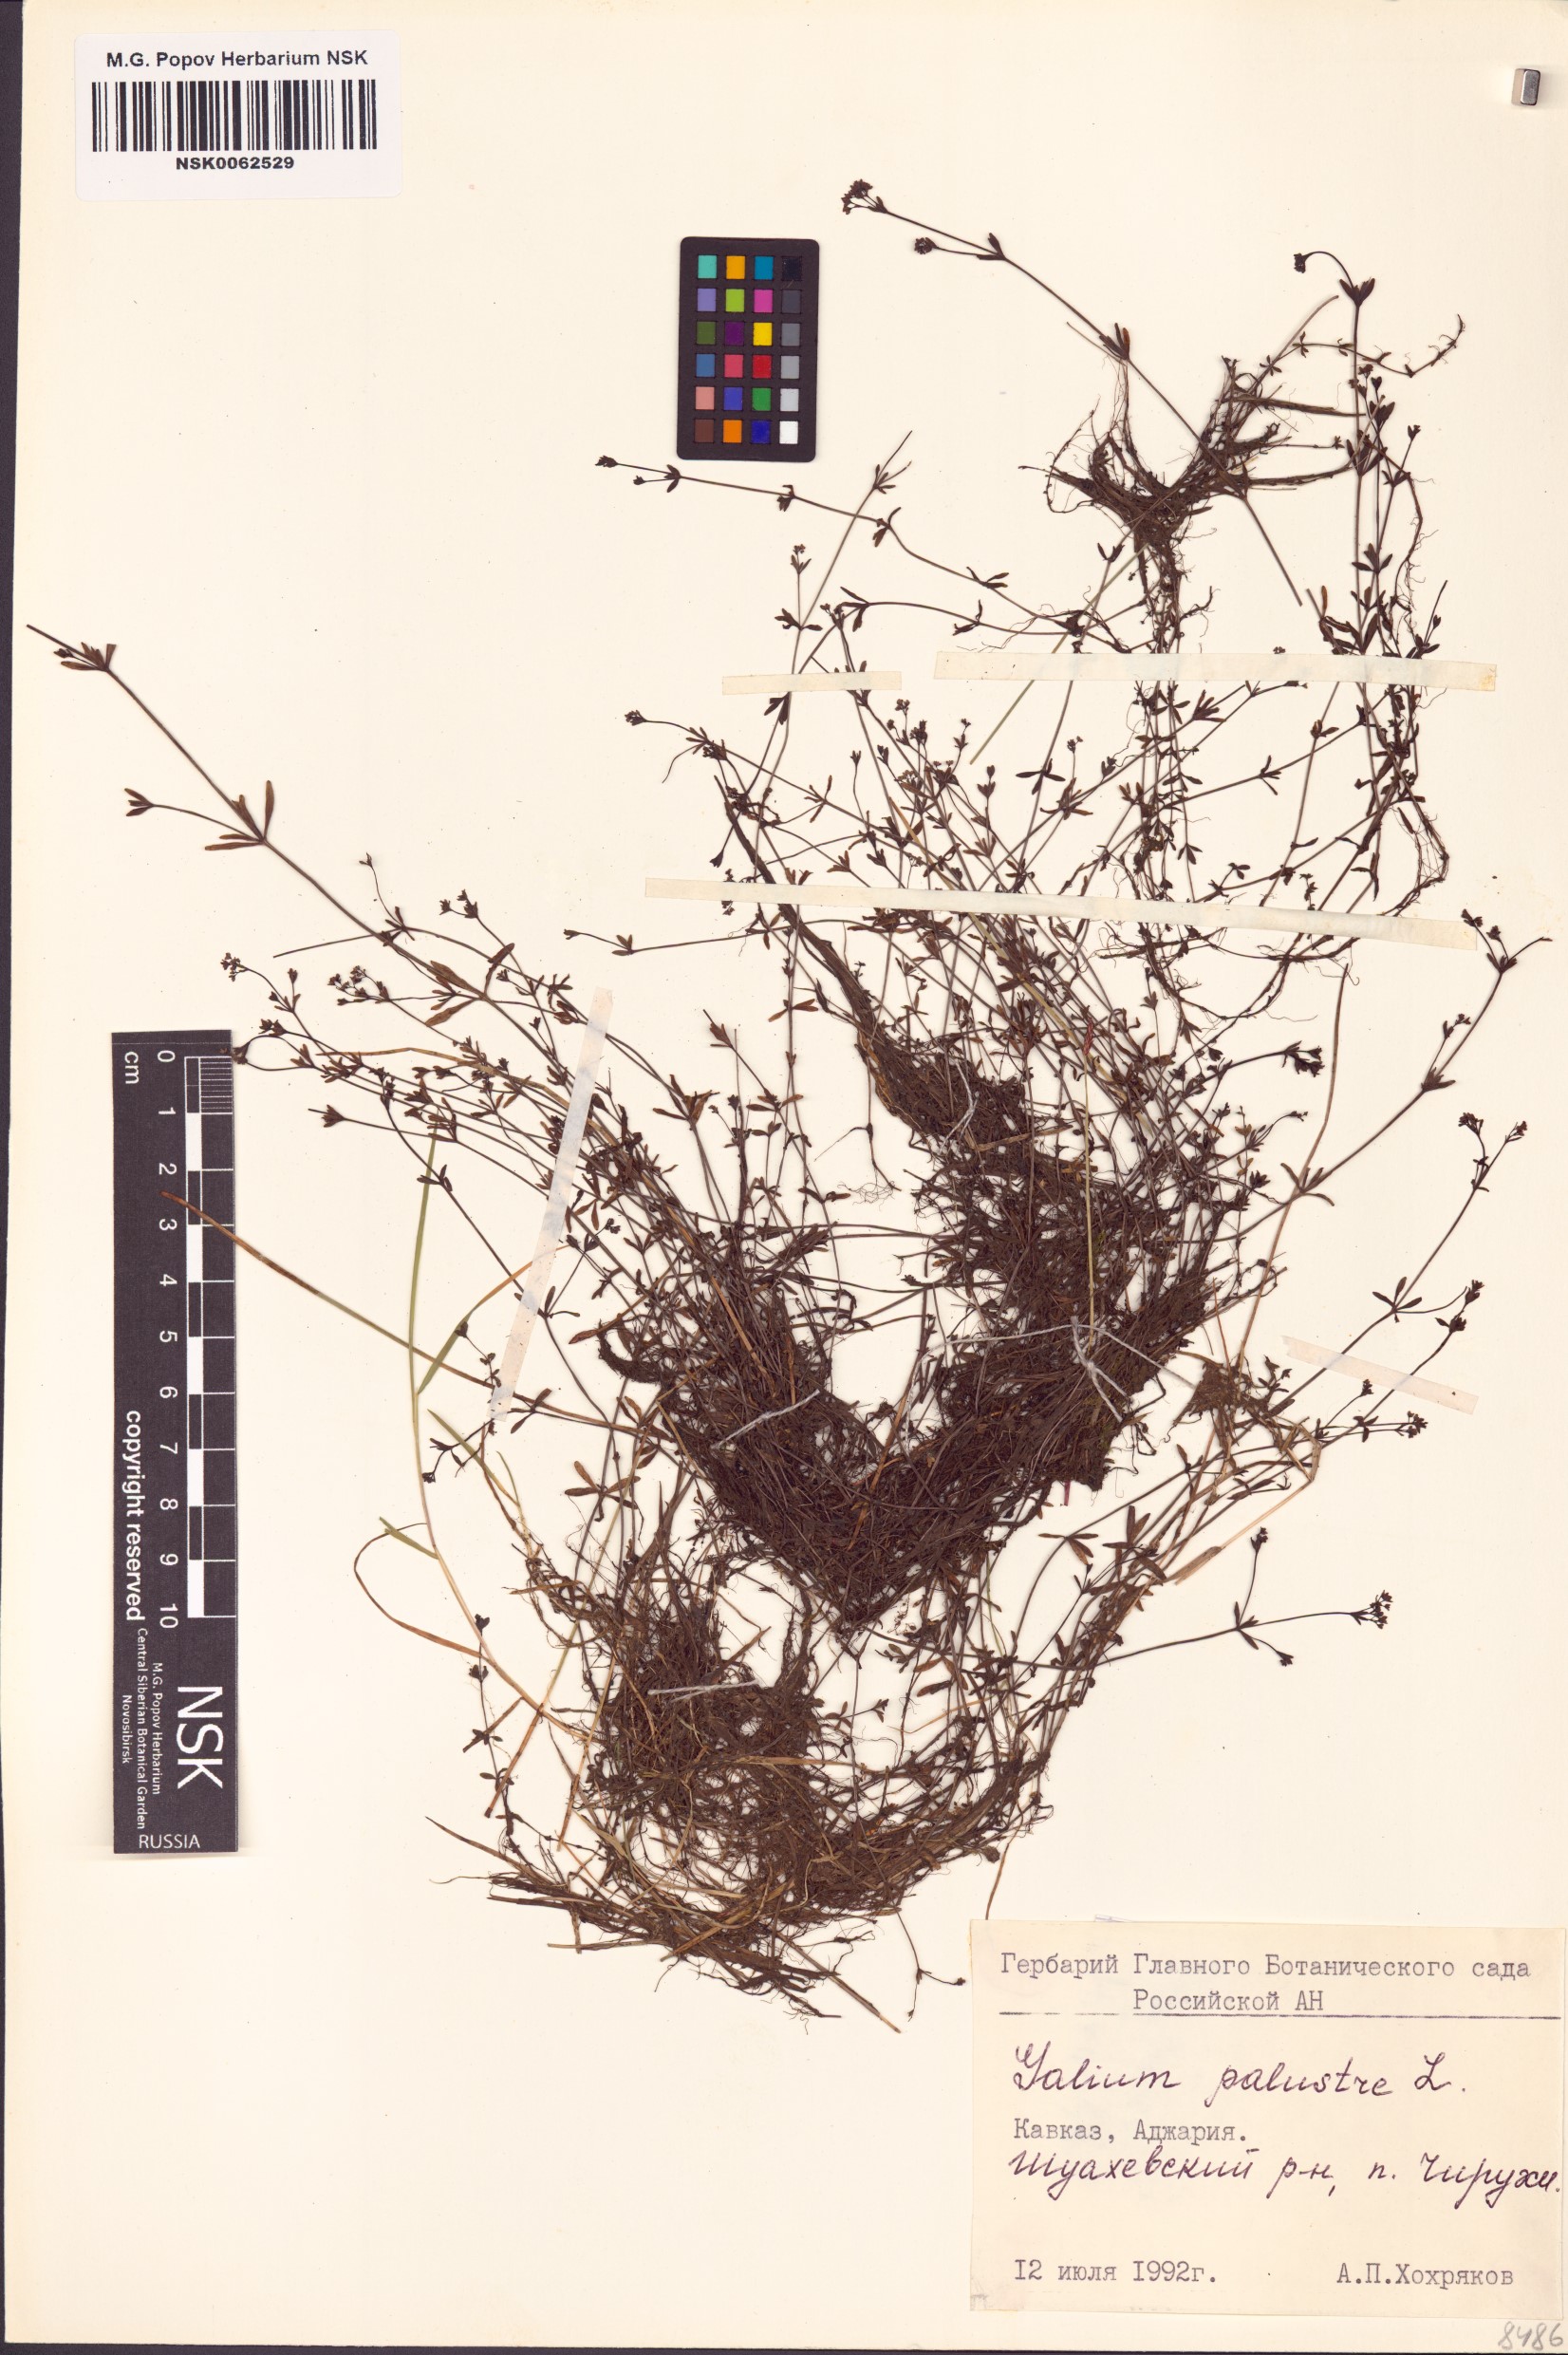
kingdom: Plantae
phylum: Tracheophyta
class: Magnoliopsida
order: Gentianales
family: Rubiaceae
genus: Galium
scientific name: Galium palustre
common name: Common marsh-bedstraw
